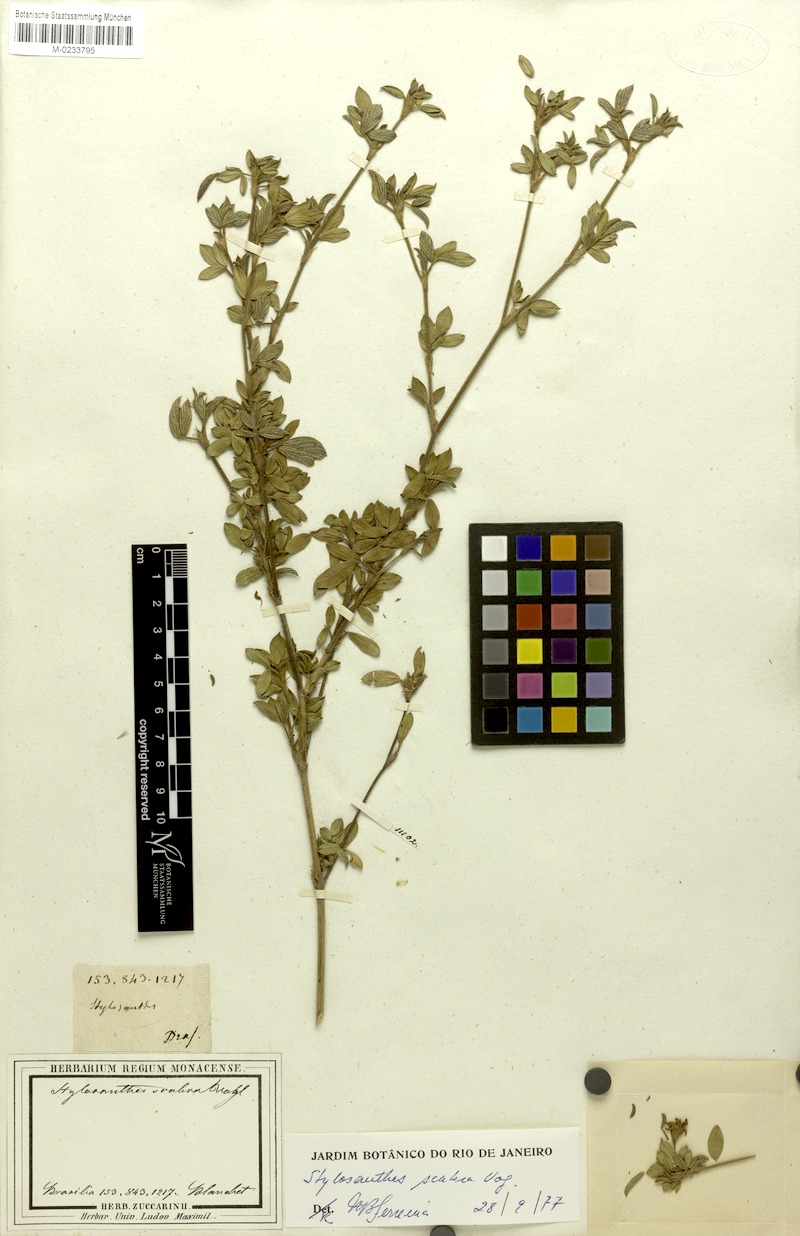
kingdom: Plantae
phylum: Tracheophyta
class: Magnoliopsida
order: Fabales
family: Fabaceae
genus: Stylosanthes
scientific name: Stylosanthes scabra
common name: Pencilflower
